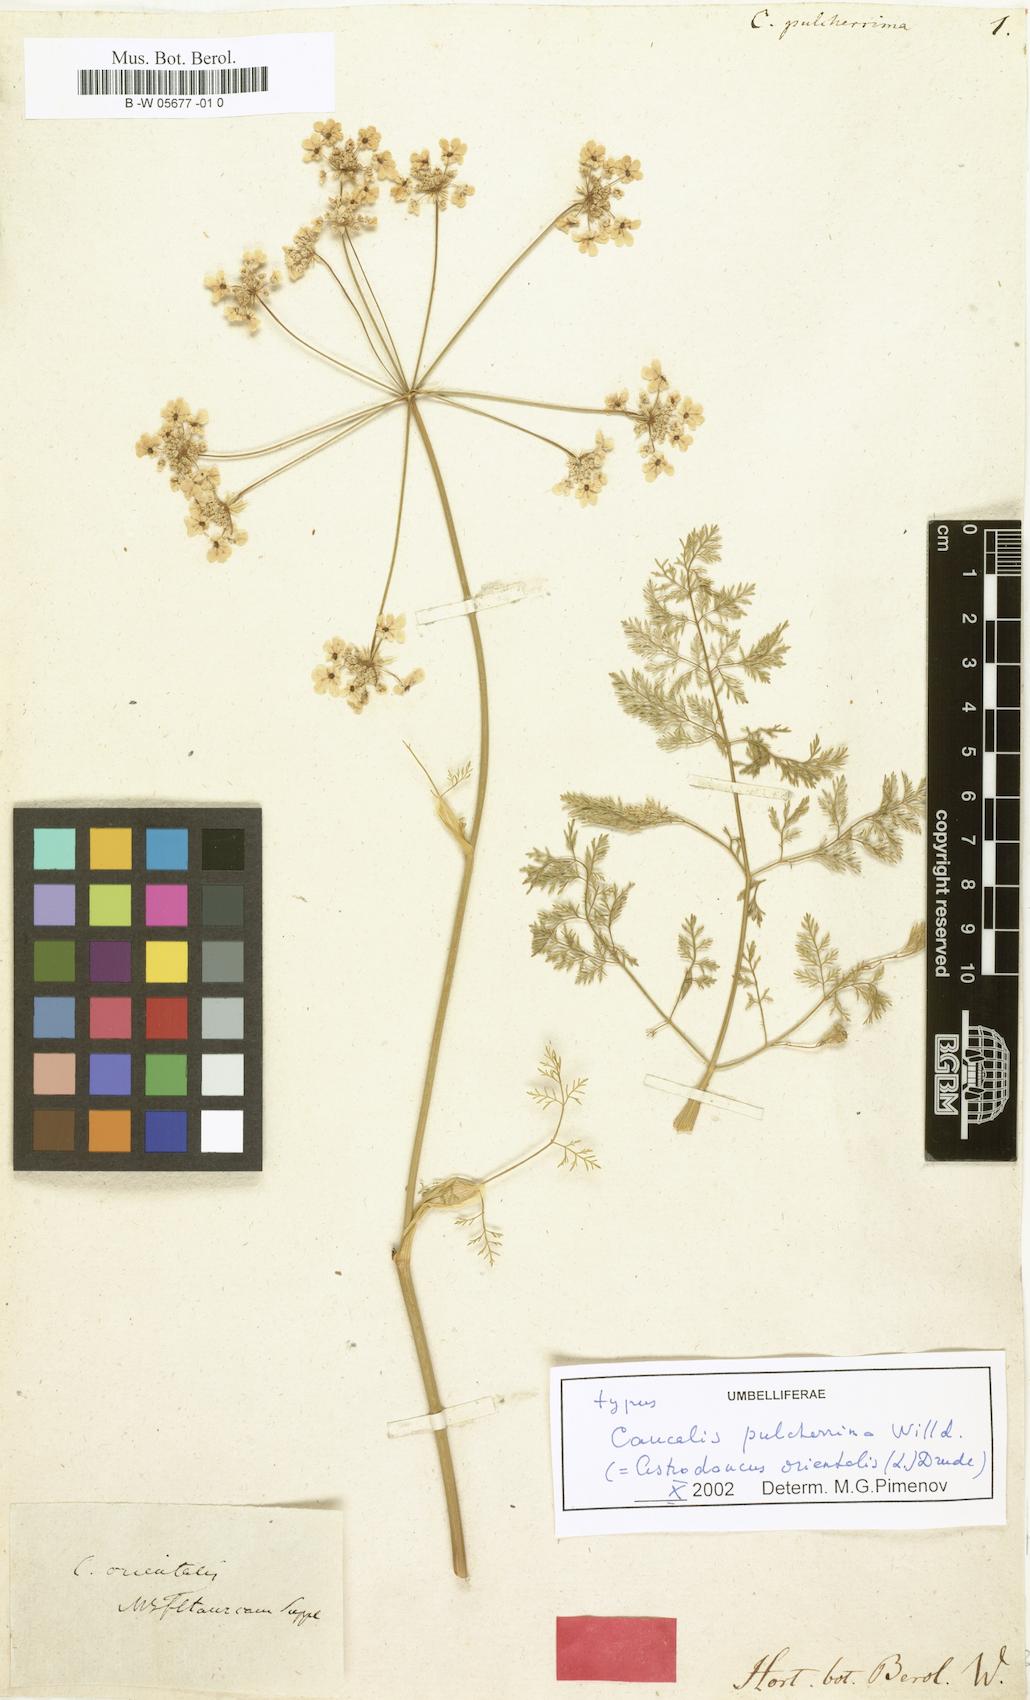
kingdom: Plantae
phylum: Tracheophyta
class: Magnoliopsida
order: Apiales
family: Apiaceae
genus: Astrodaucus
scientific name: Astrodaucus orientalis
